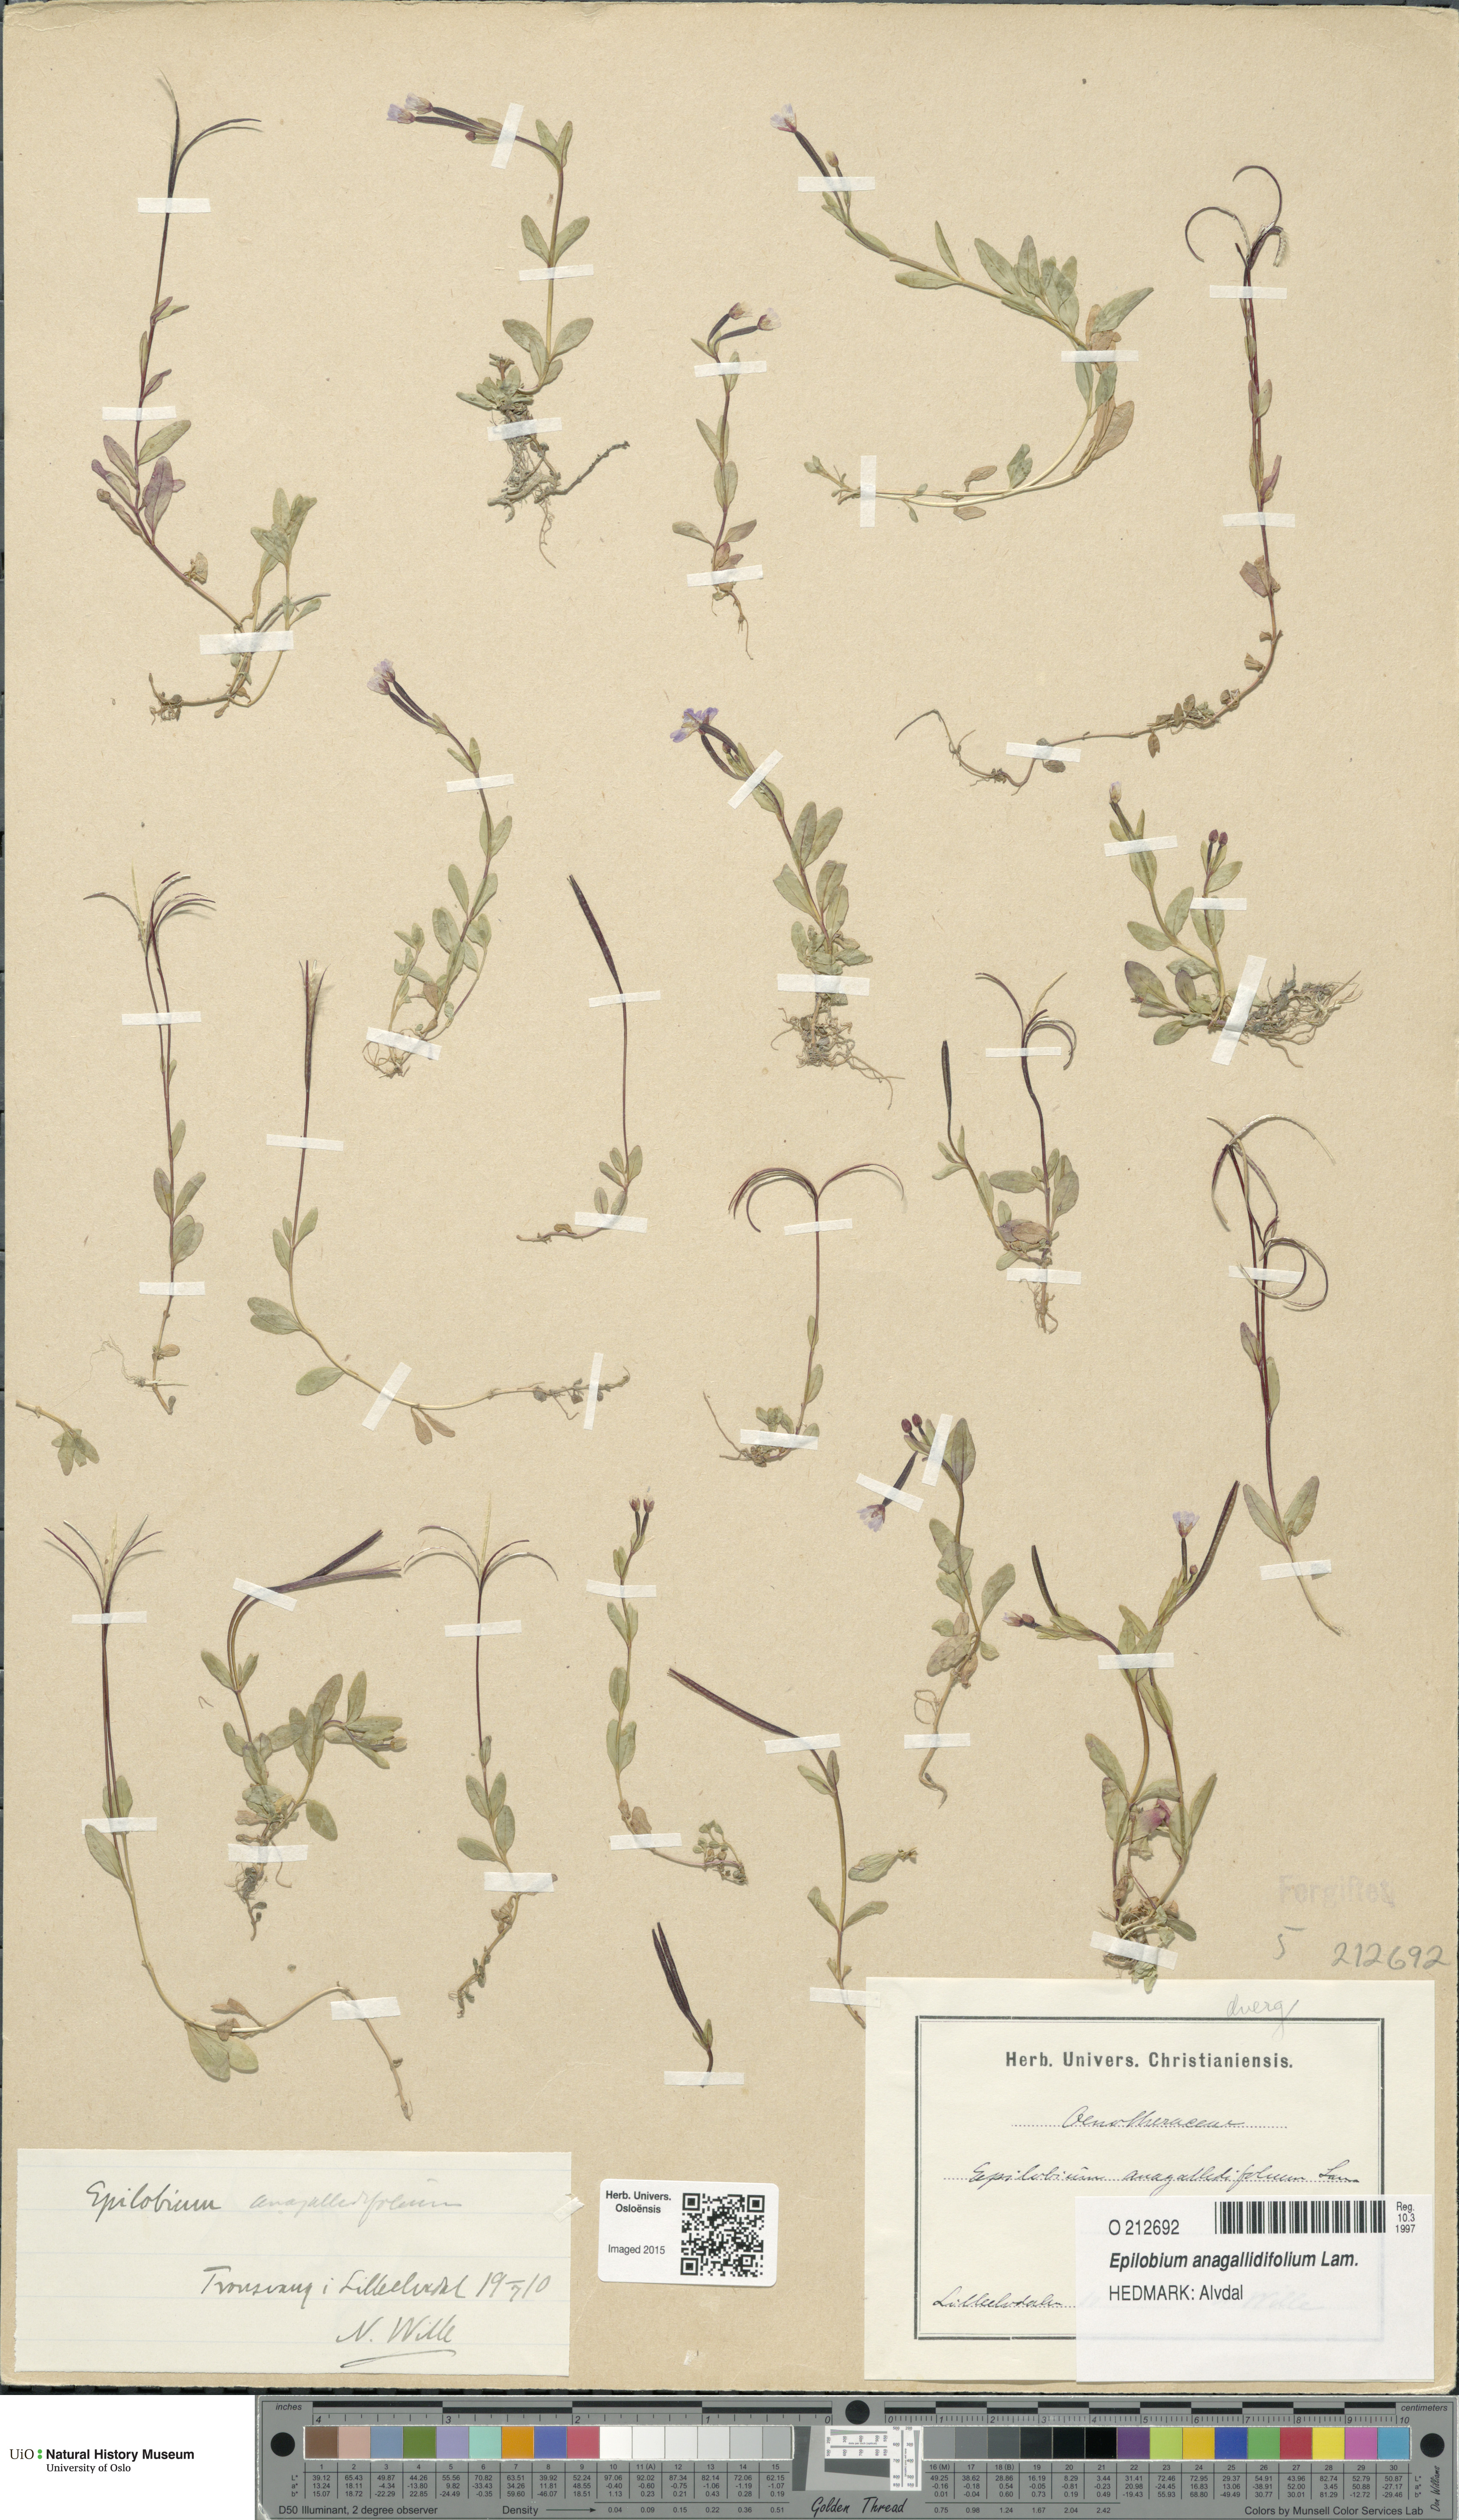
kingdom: Plantae
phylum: Tracheophyta
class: Magnoliopsida
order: Myrtales
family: Onagraceae
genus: Epilobium
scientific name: Epilobium anagallidifolium
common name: Alpine willowherb
